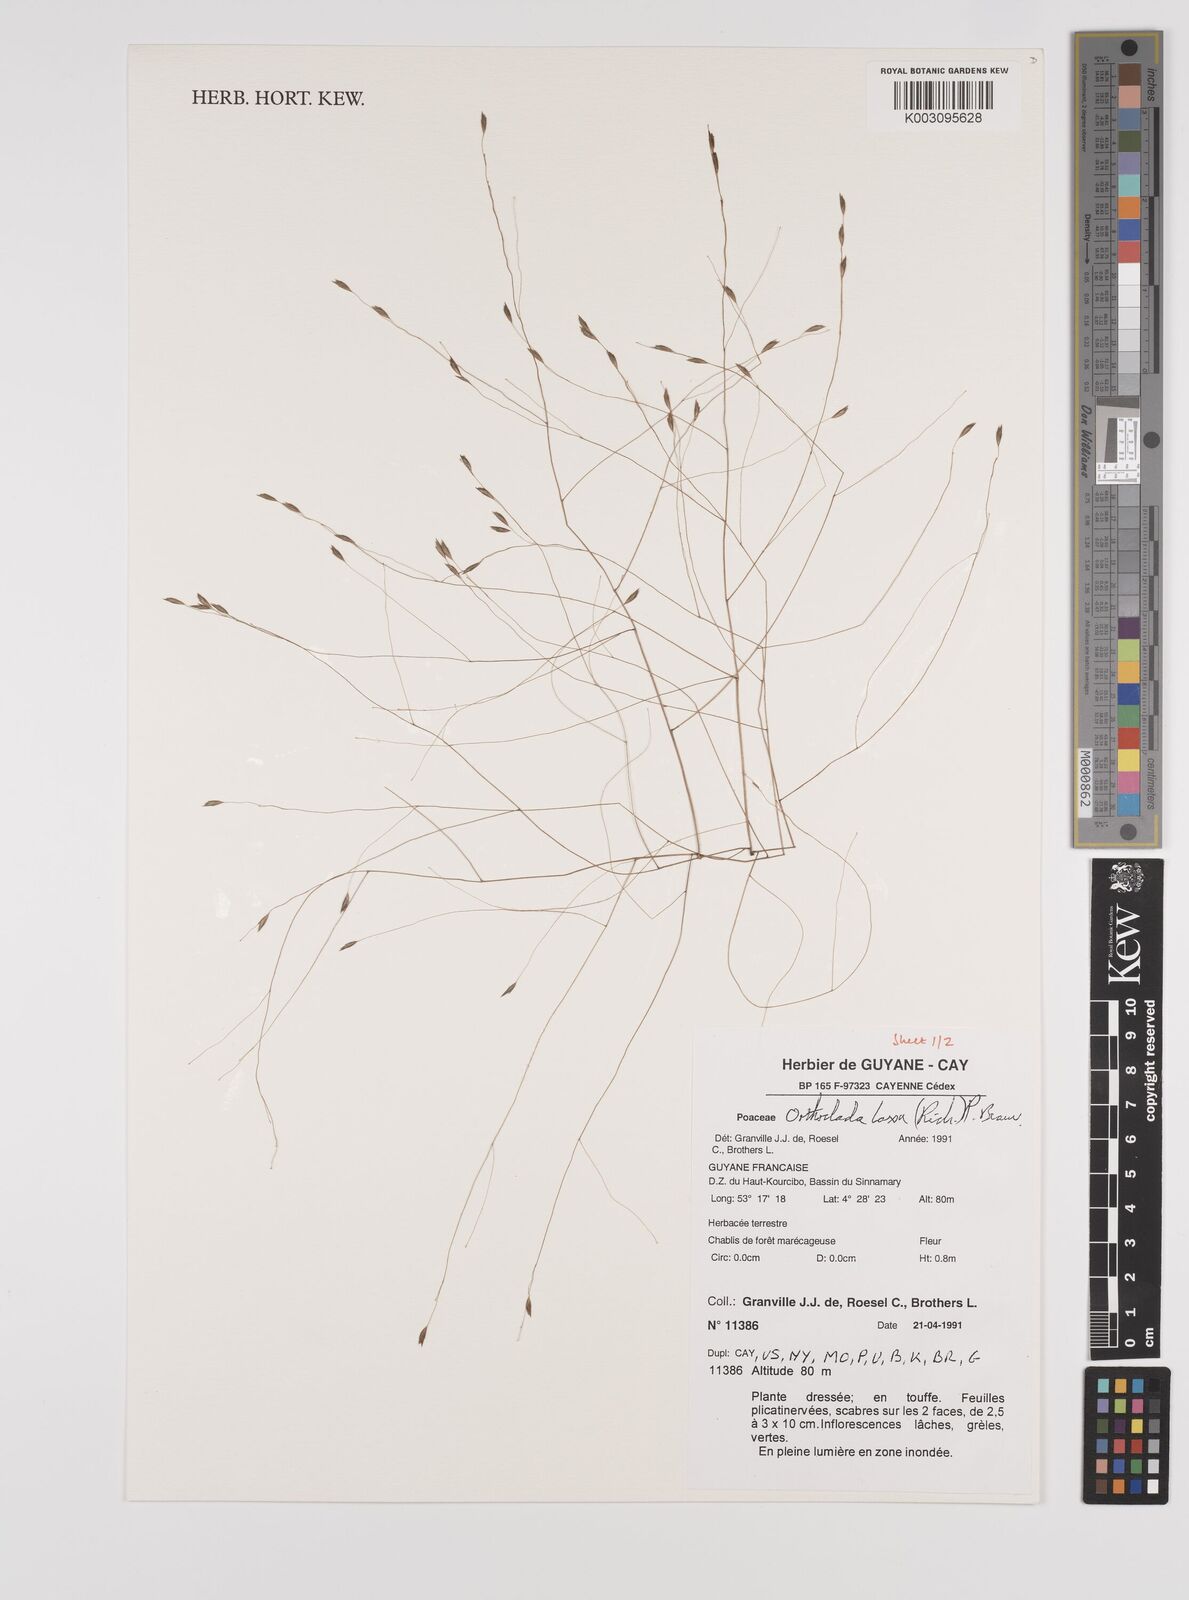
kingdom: Plantae
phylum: Tracheophyta
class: Liliopsida
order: Poales
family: Poaceae
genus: Orthoclada
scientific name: Orthoclada laxa
